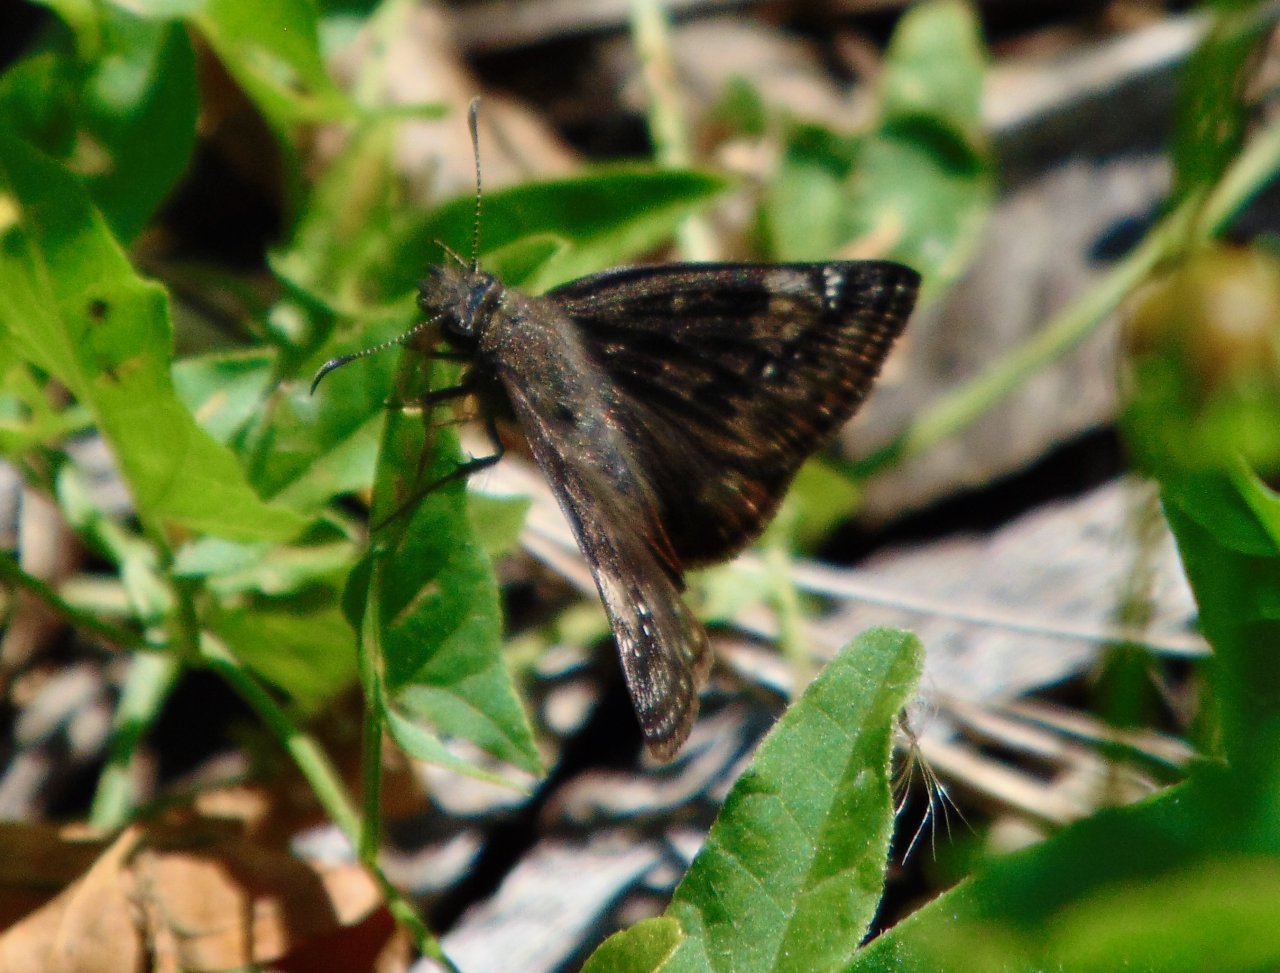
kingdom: Animalia
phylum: Arthropoda
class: Insecta
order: Lepidoptera
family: Hesperiidae
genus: Gesta
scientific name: Gesta
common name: Wild Indigo Duskywing
